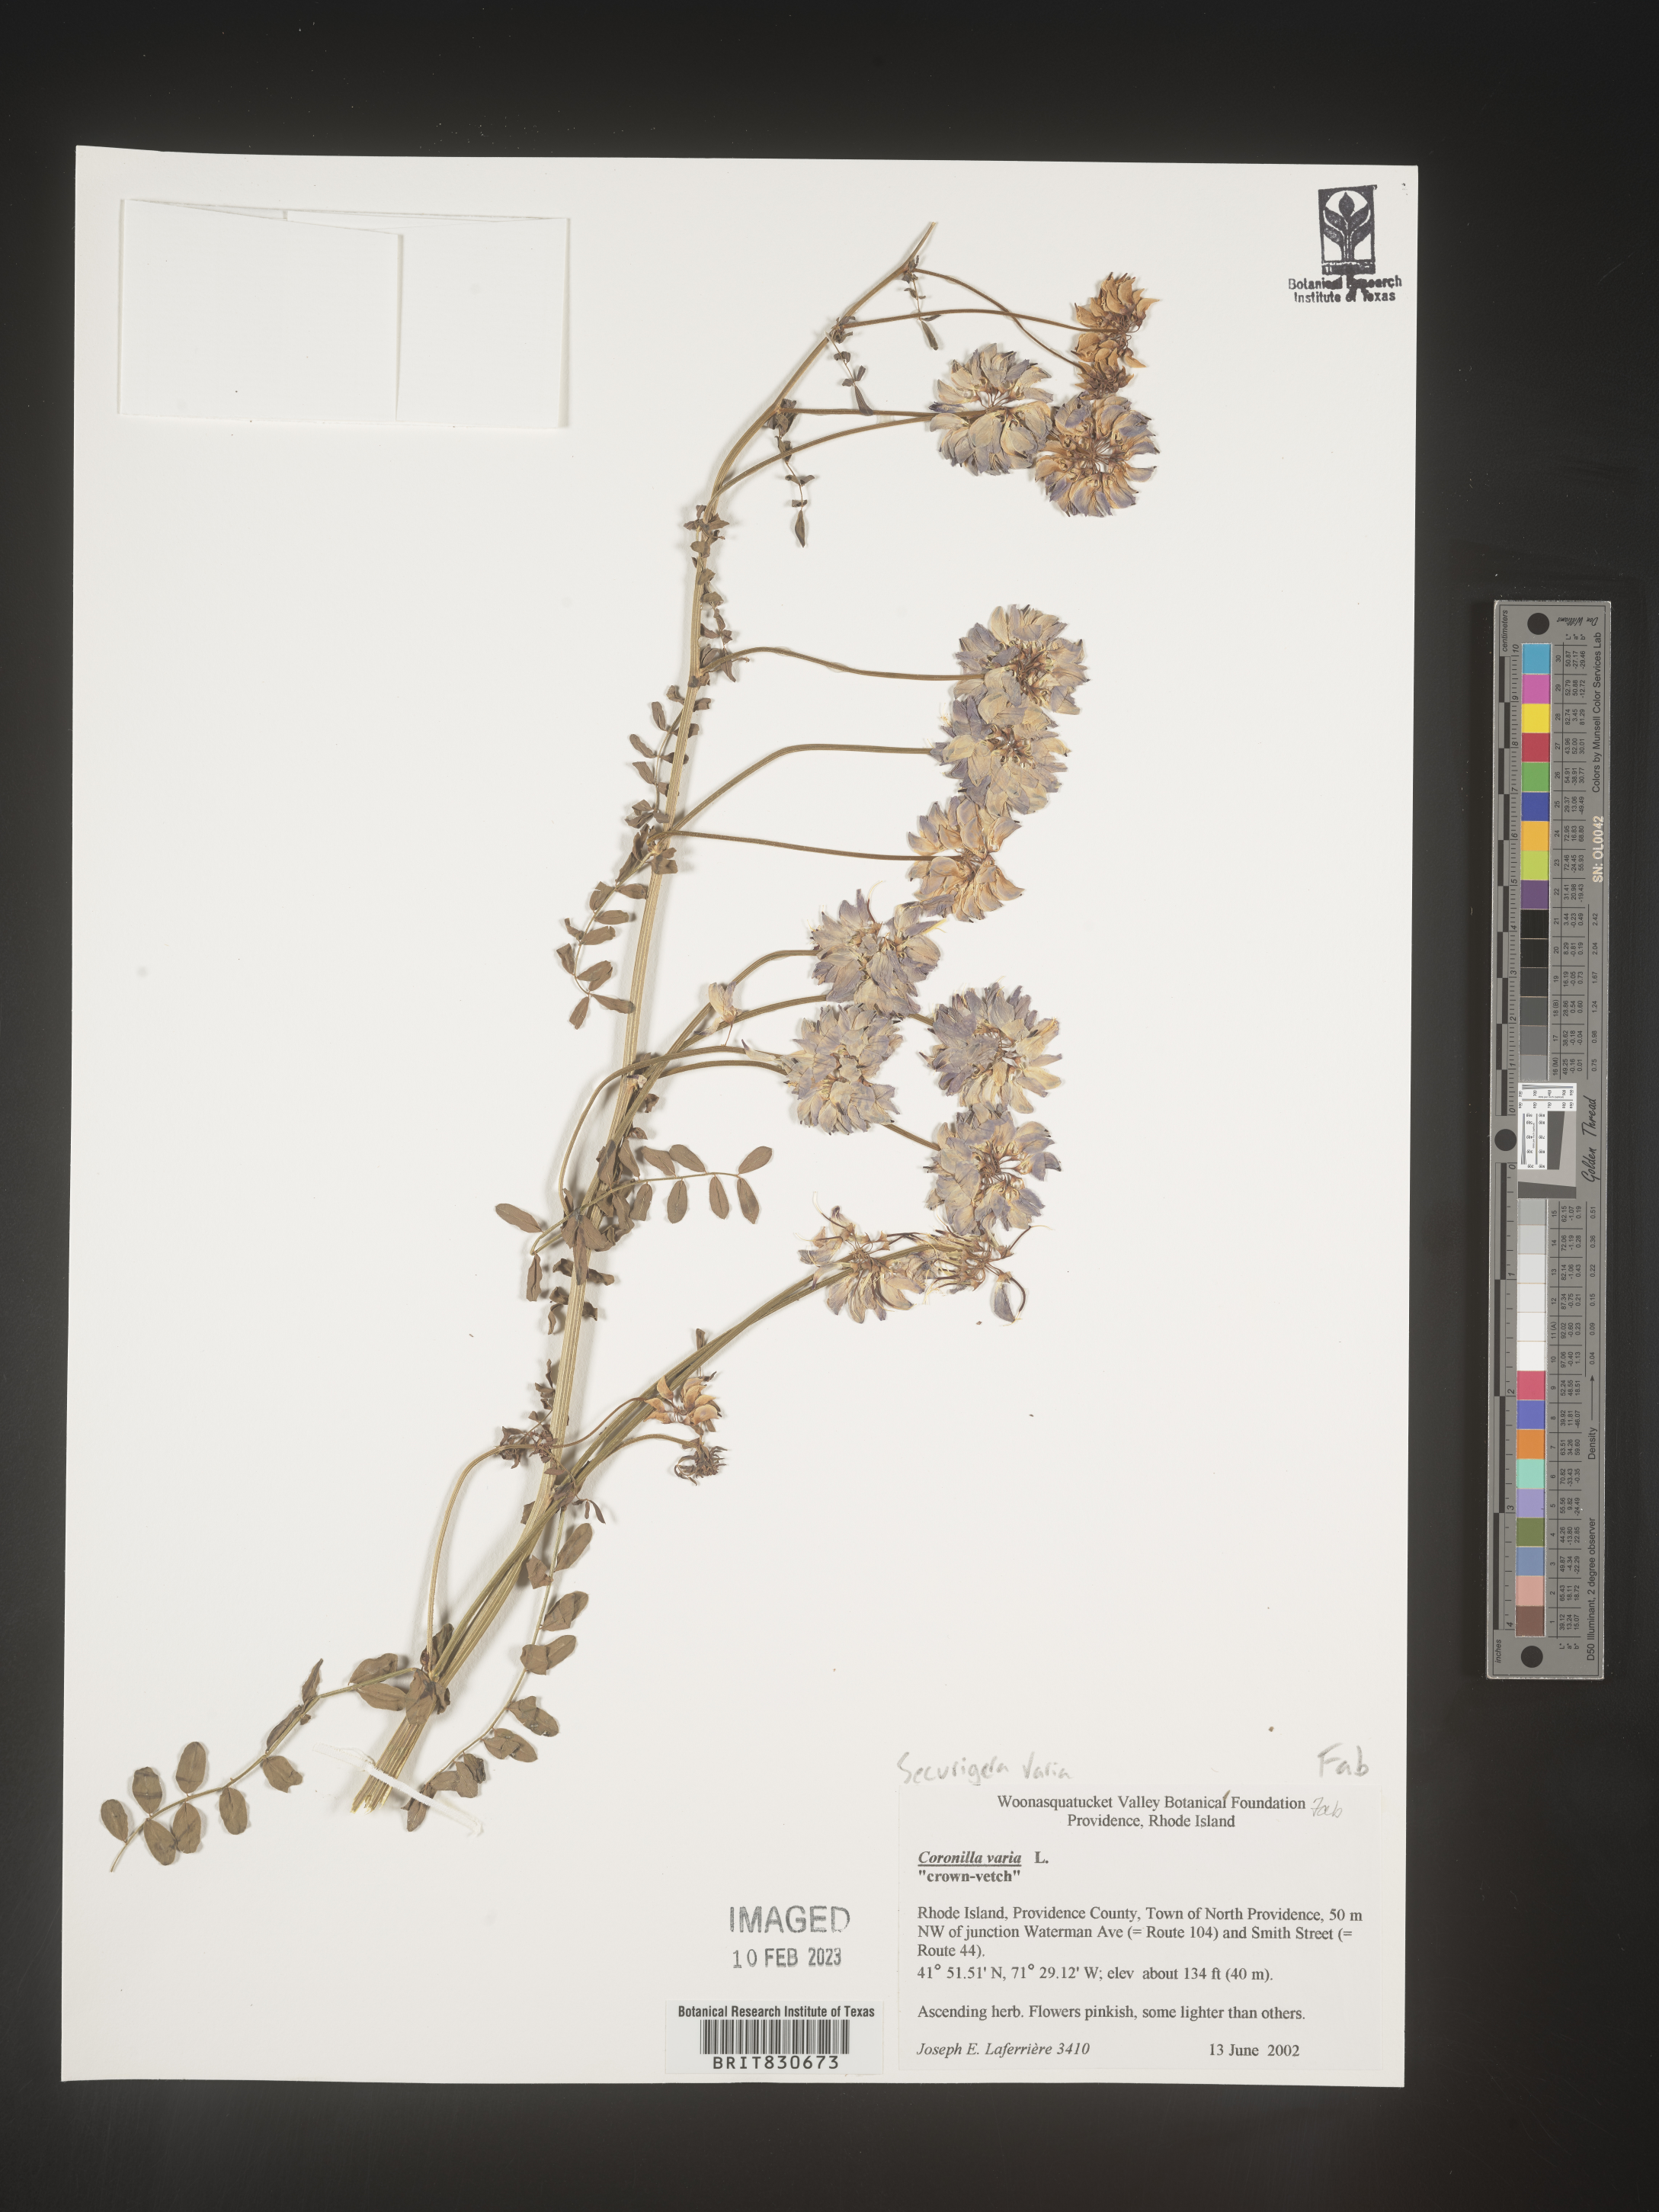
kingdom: Animalia
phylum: Arthropoda
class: Insecta
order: Orthoptera
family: Romaleidae
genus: Securigera
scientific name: Securigera
